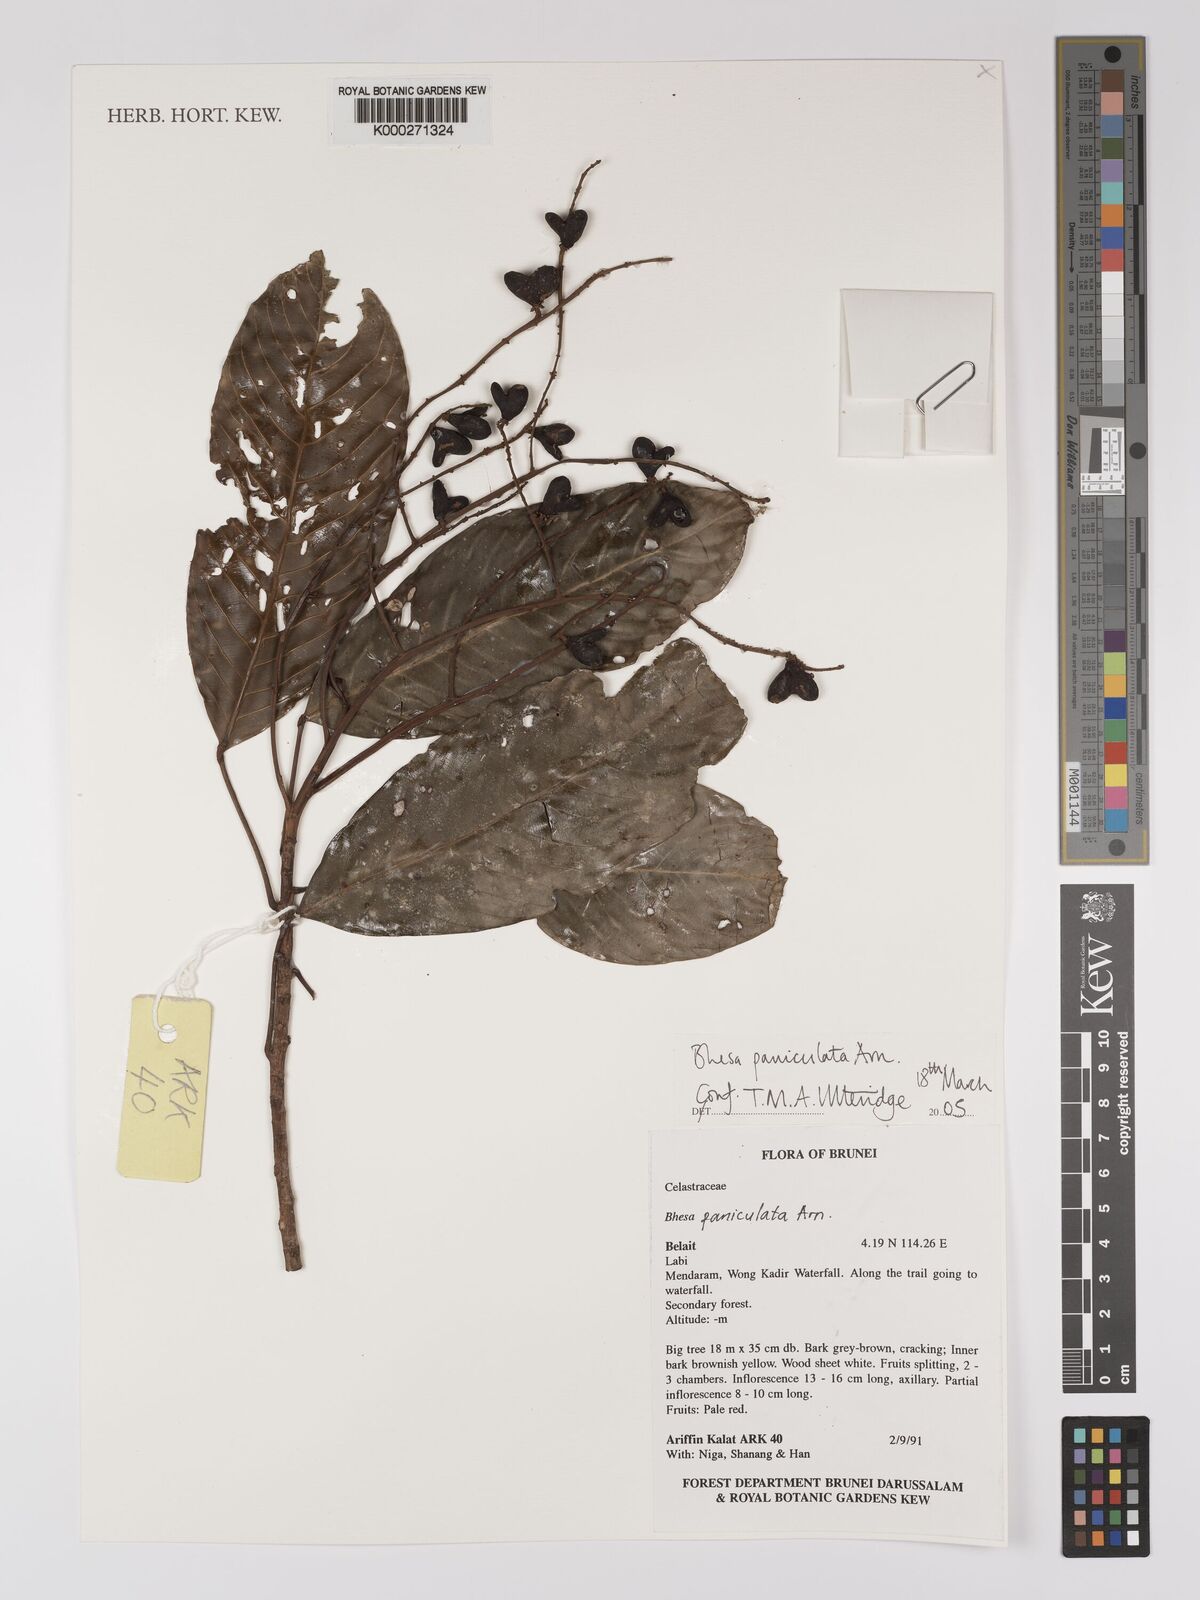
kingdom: Plantae
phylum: Tracheophyta
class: Magnoliopsida
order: Malpighiales
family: Centroplacaceae
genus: Bhesa
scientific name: Bhesa paniculata
